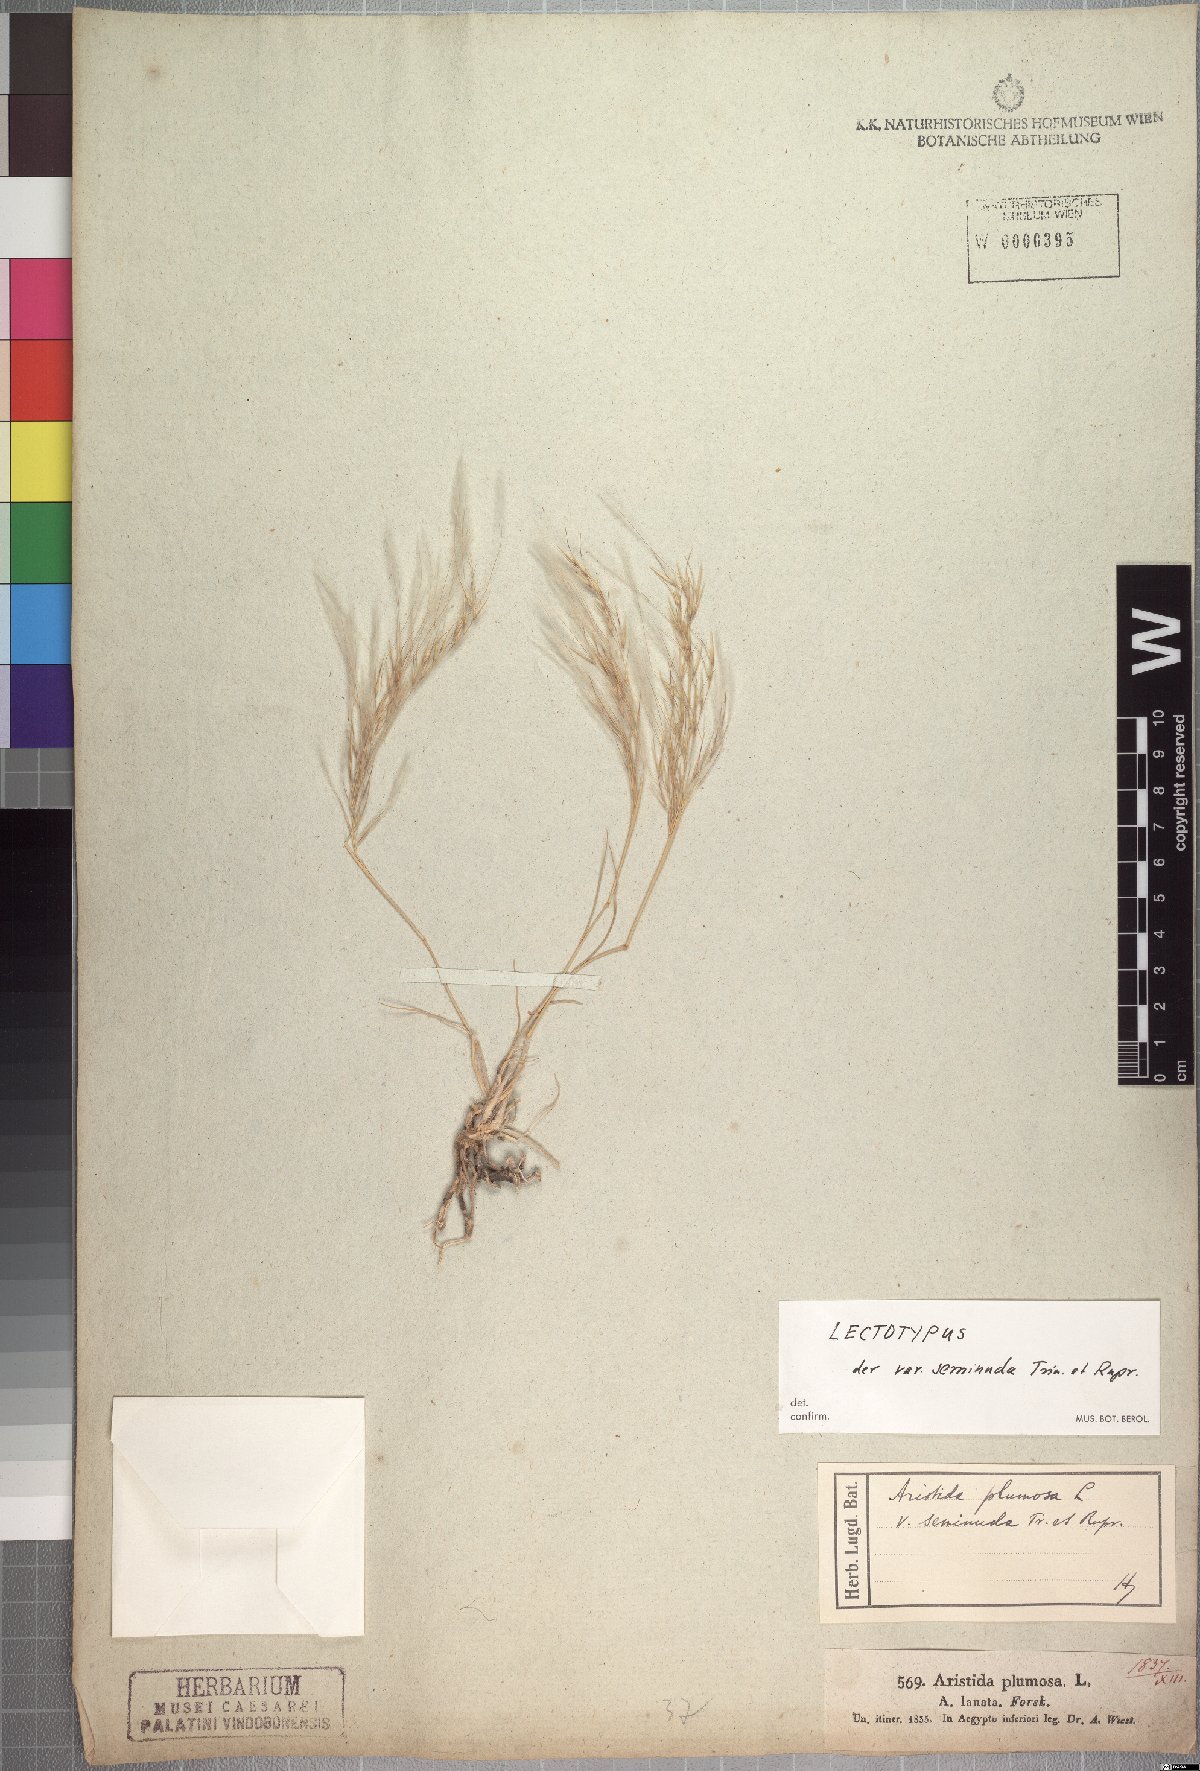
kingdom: Plantae
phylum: Tracheophyta
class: Liliopsida
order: Poales
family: Poaceae
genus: Stipagrostis
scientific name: Stipagrostis plumosa
